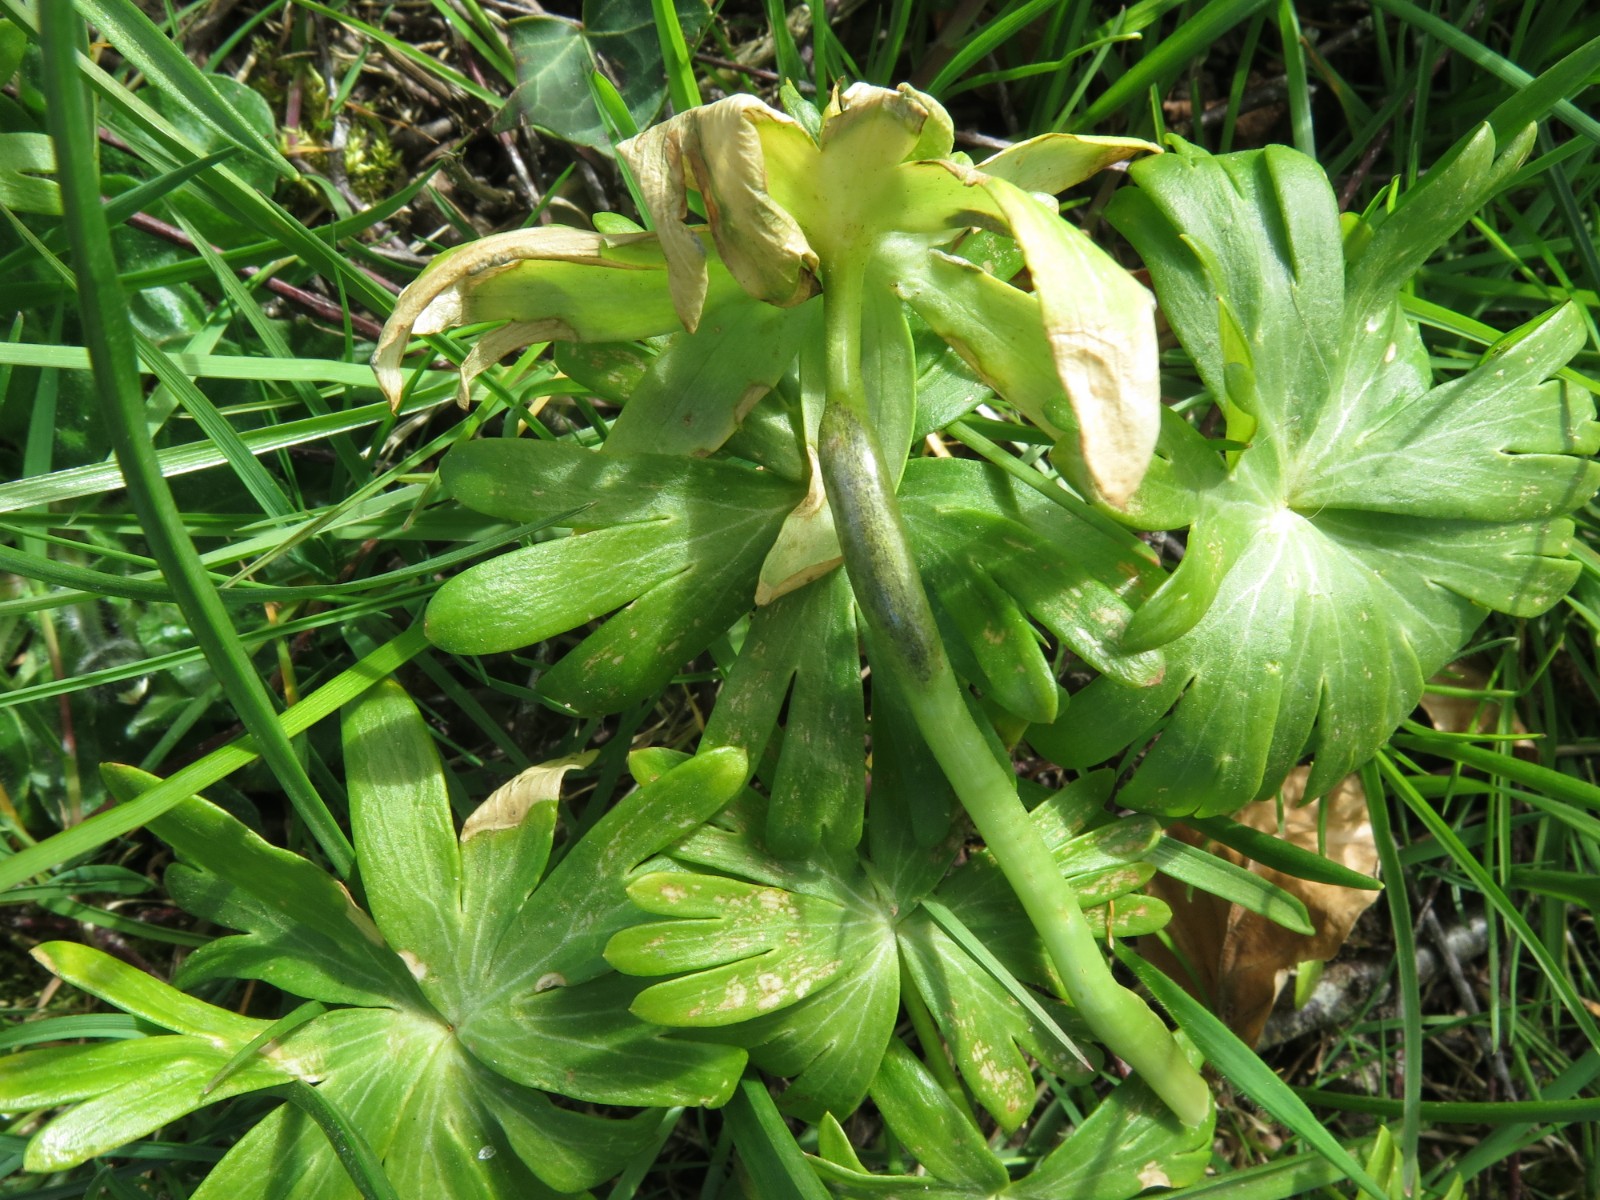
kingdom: Fungi
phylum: Basidiomycota
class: Ustilaginomycetes
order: Urocystidales
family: Urocystidaceae
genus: Urocystis
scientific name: Urocystis eranthidis
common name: erantis-brand
